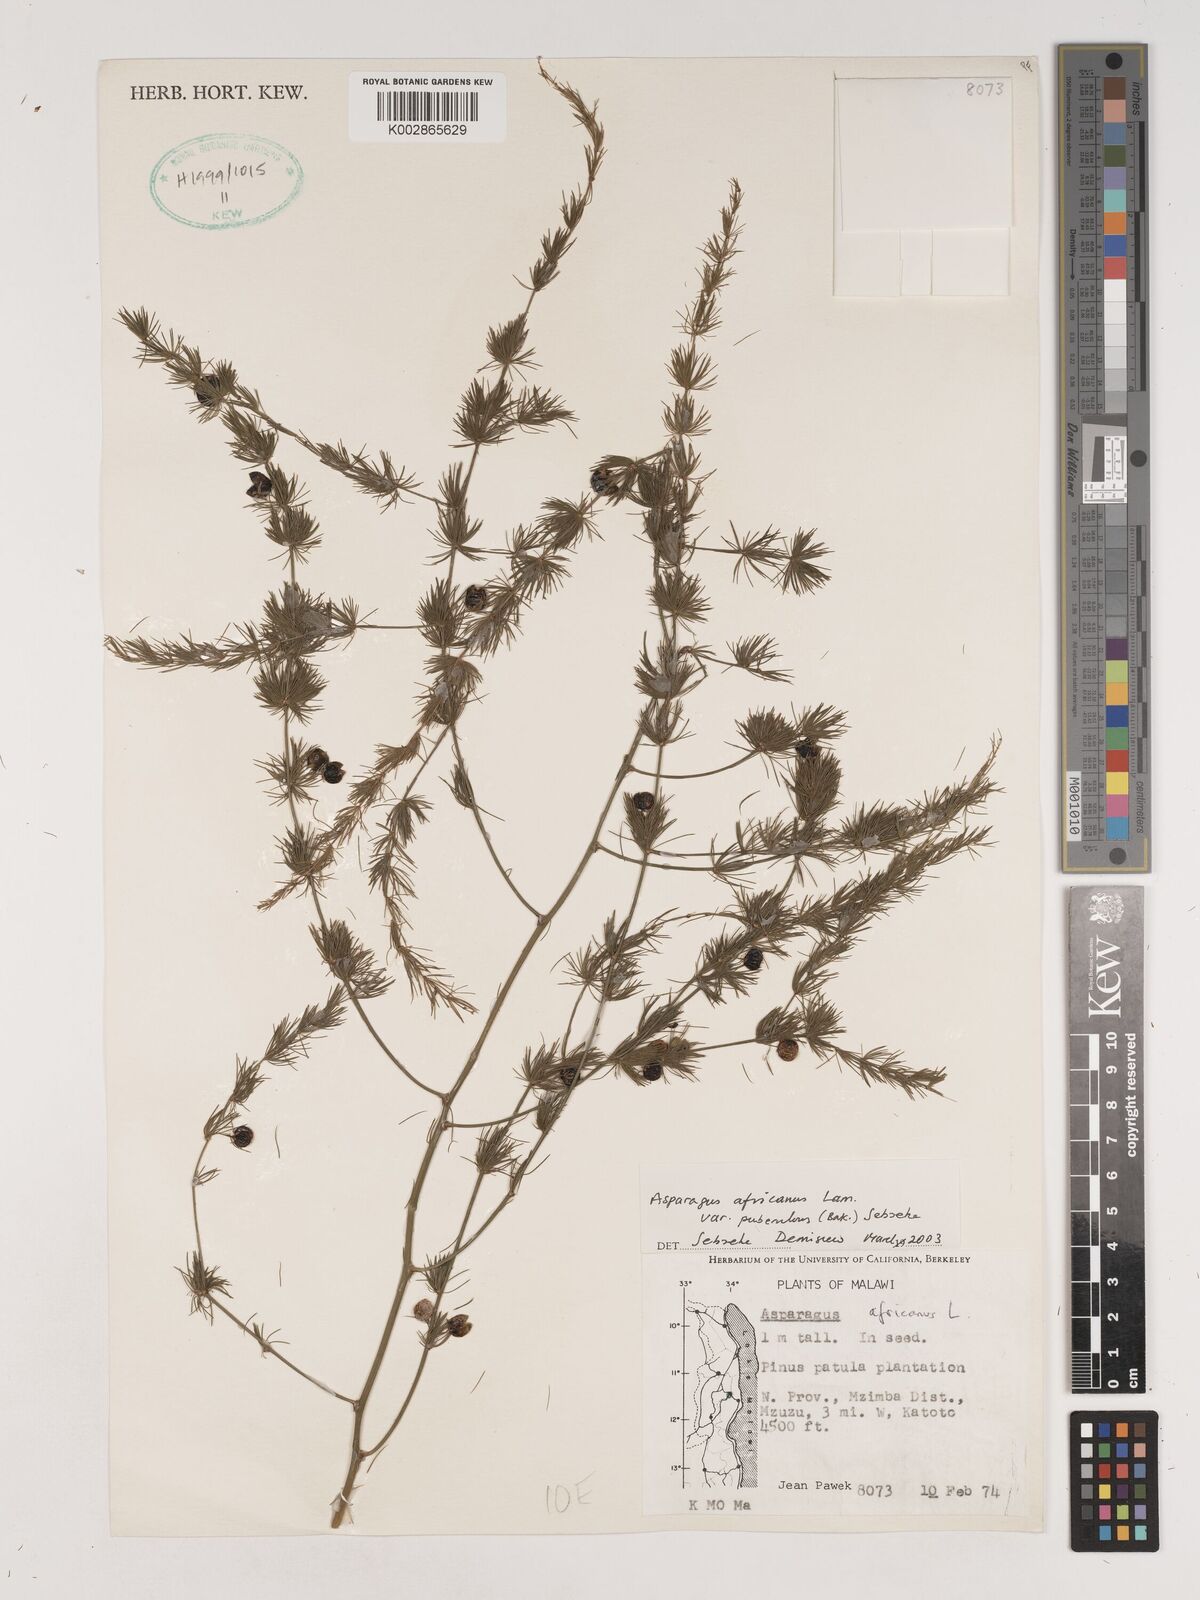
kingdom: Plantae
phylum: Tracheophyta
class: Liliopsida
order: Asparagales
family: Asparagaceae
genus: Asparagus
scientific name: Asparagus africanus
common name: Asparagus-fern
